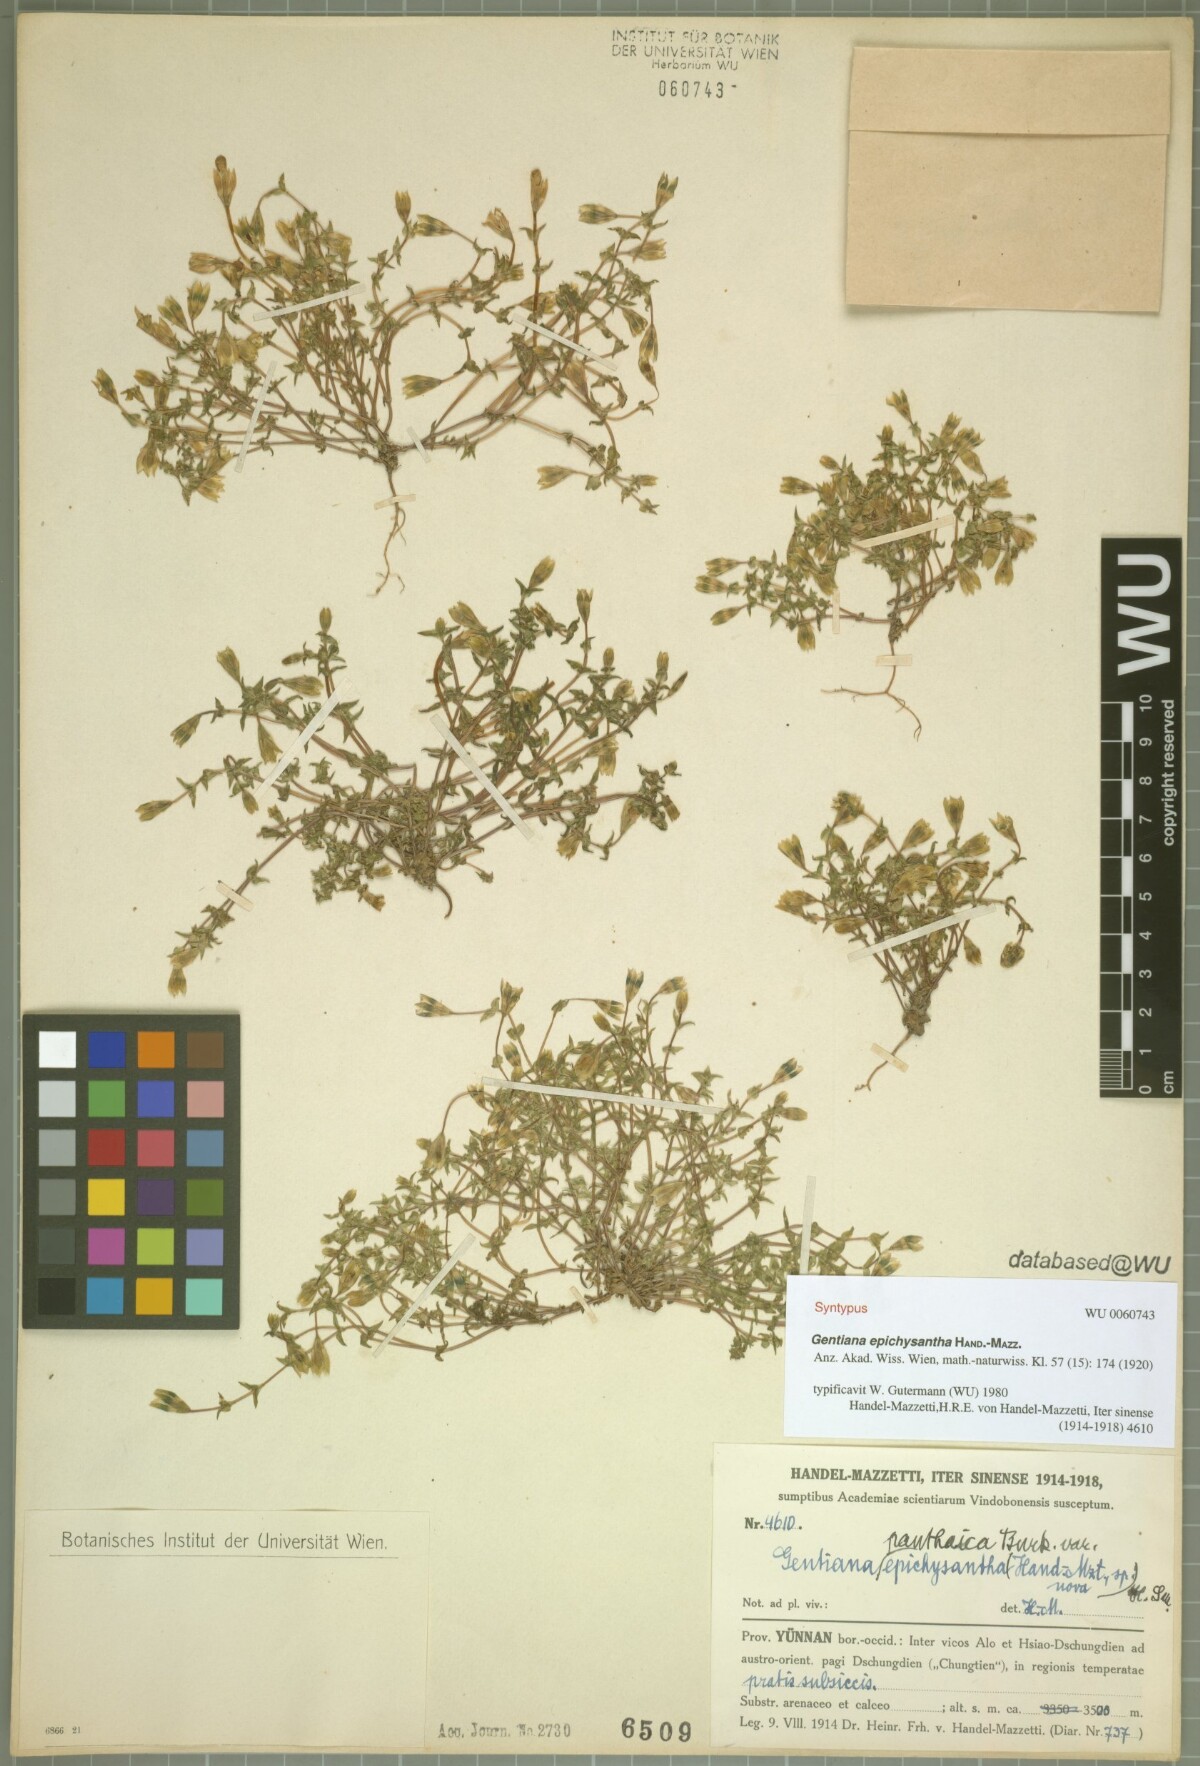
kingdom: Plantae
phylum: Tracheophyta
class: Magnoliopsida
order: Gentianales
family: Gentianaceae
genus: Gentiana
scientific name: Gentiana panthaica
